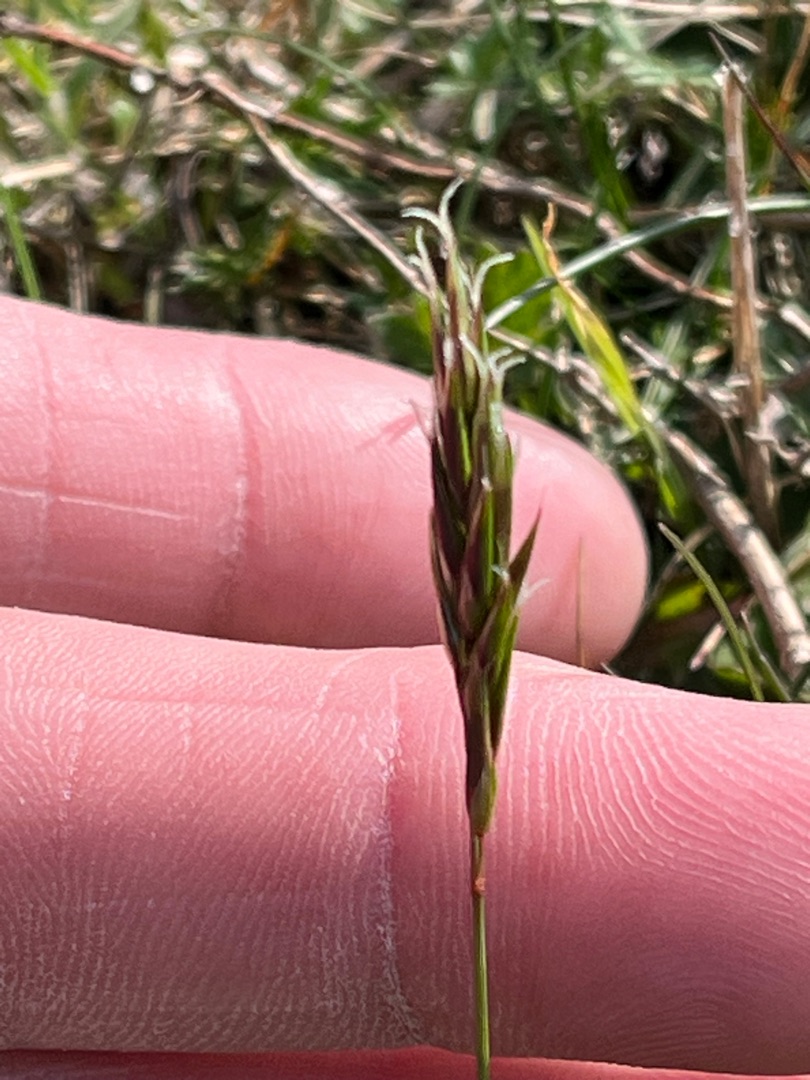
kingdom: Plantae
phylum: Tracheophyta
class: Liliopsida
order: Poales
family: Poaceae
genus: Anthoxanthum
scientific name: Anthoxanthum odoratum
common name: Vellugtende gulaks
